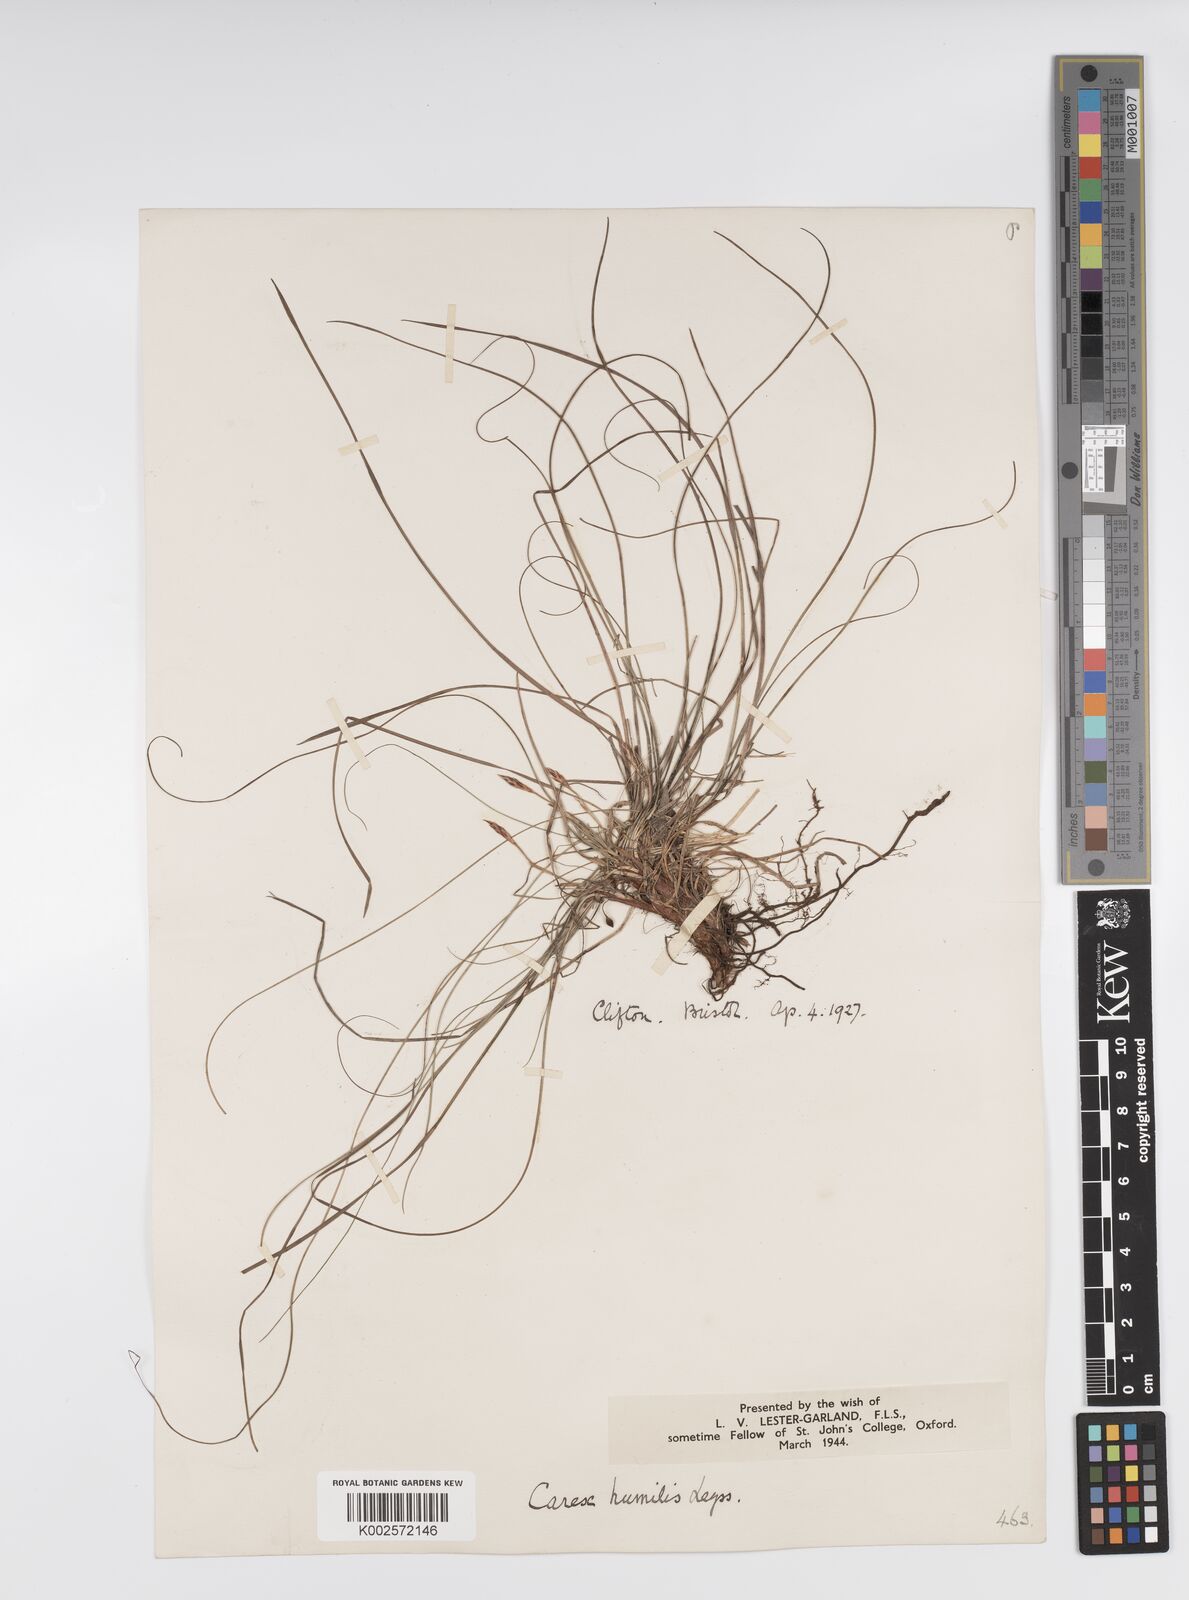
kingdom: Plantae
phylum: Tracheophyta
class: Liliopsida
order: Poales
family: Cyperaceae
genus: Carex
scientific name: Carex humilis
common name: Dwarf sedge
